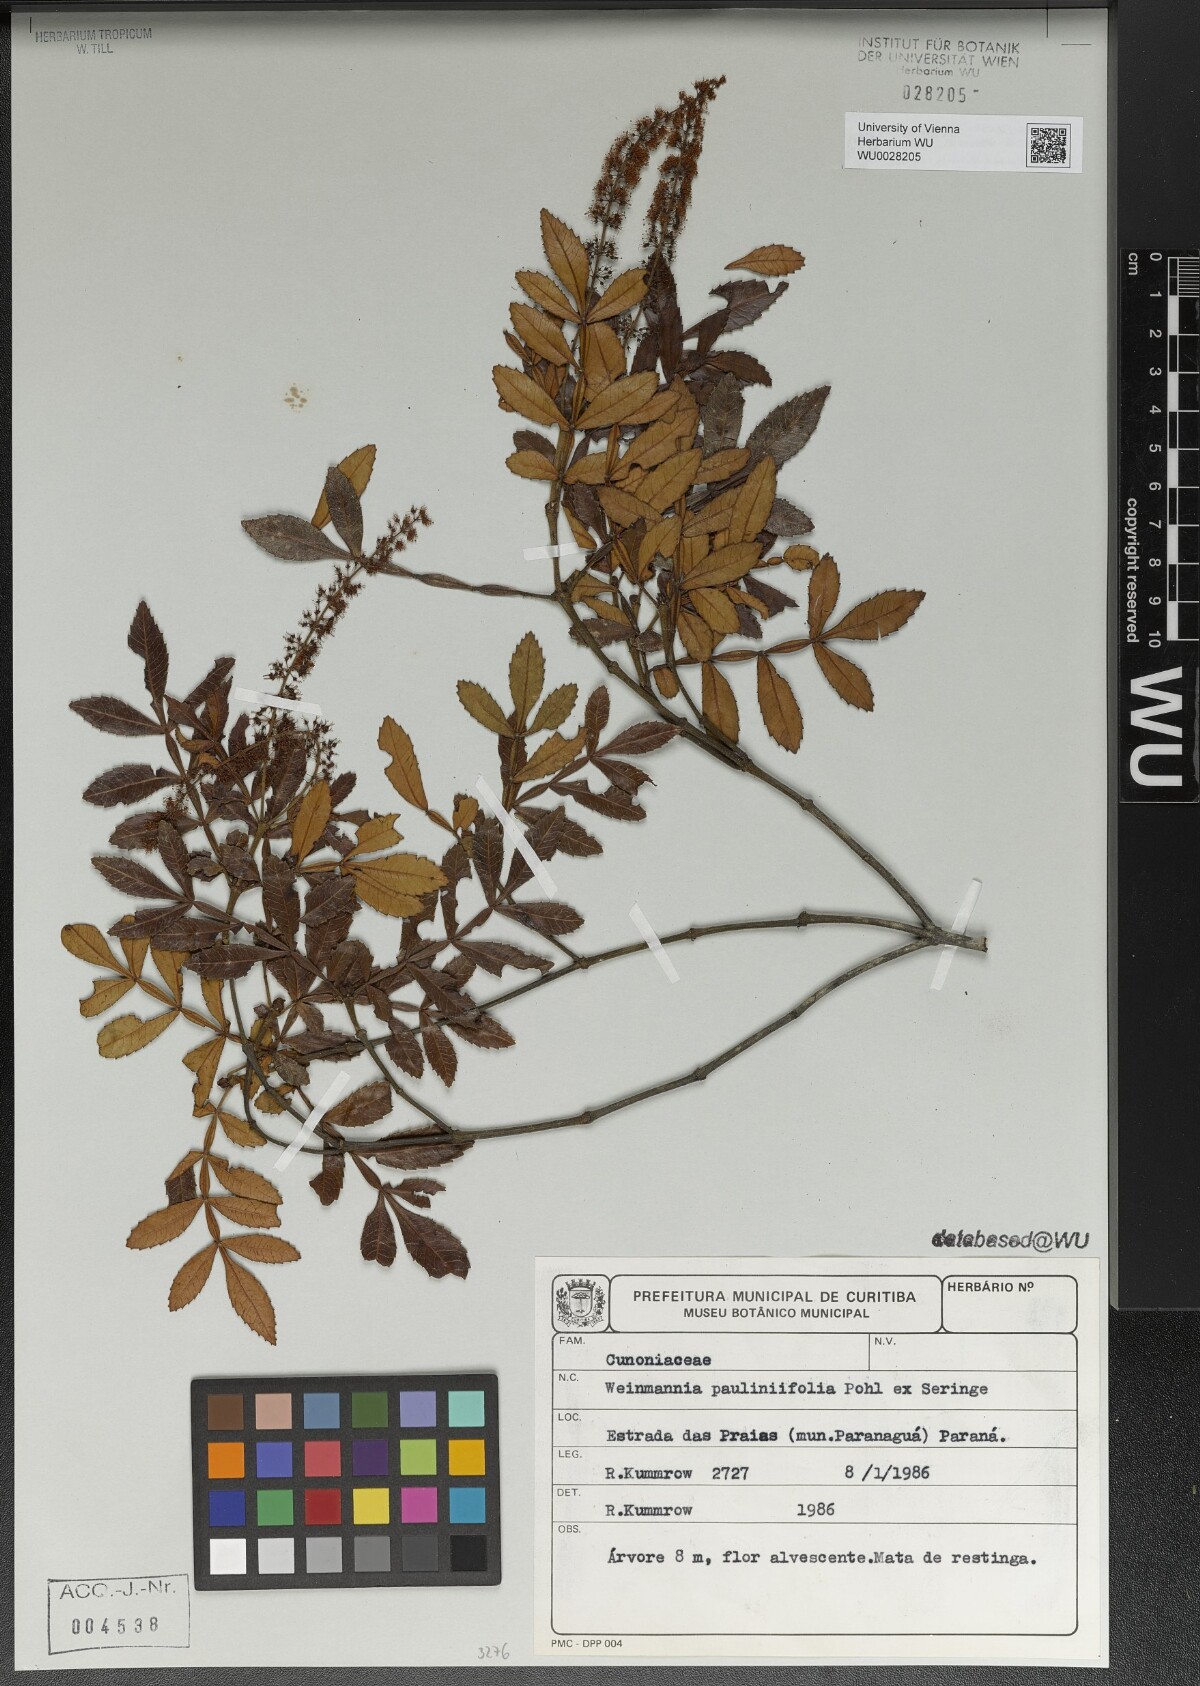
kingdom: Plantae
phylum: Tracheophyta
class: Magnoliopsida
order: Oxalidales
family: Cunoniaceae
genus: Weinmannia
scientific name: Weinmannia paullinifolia
